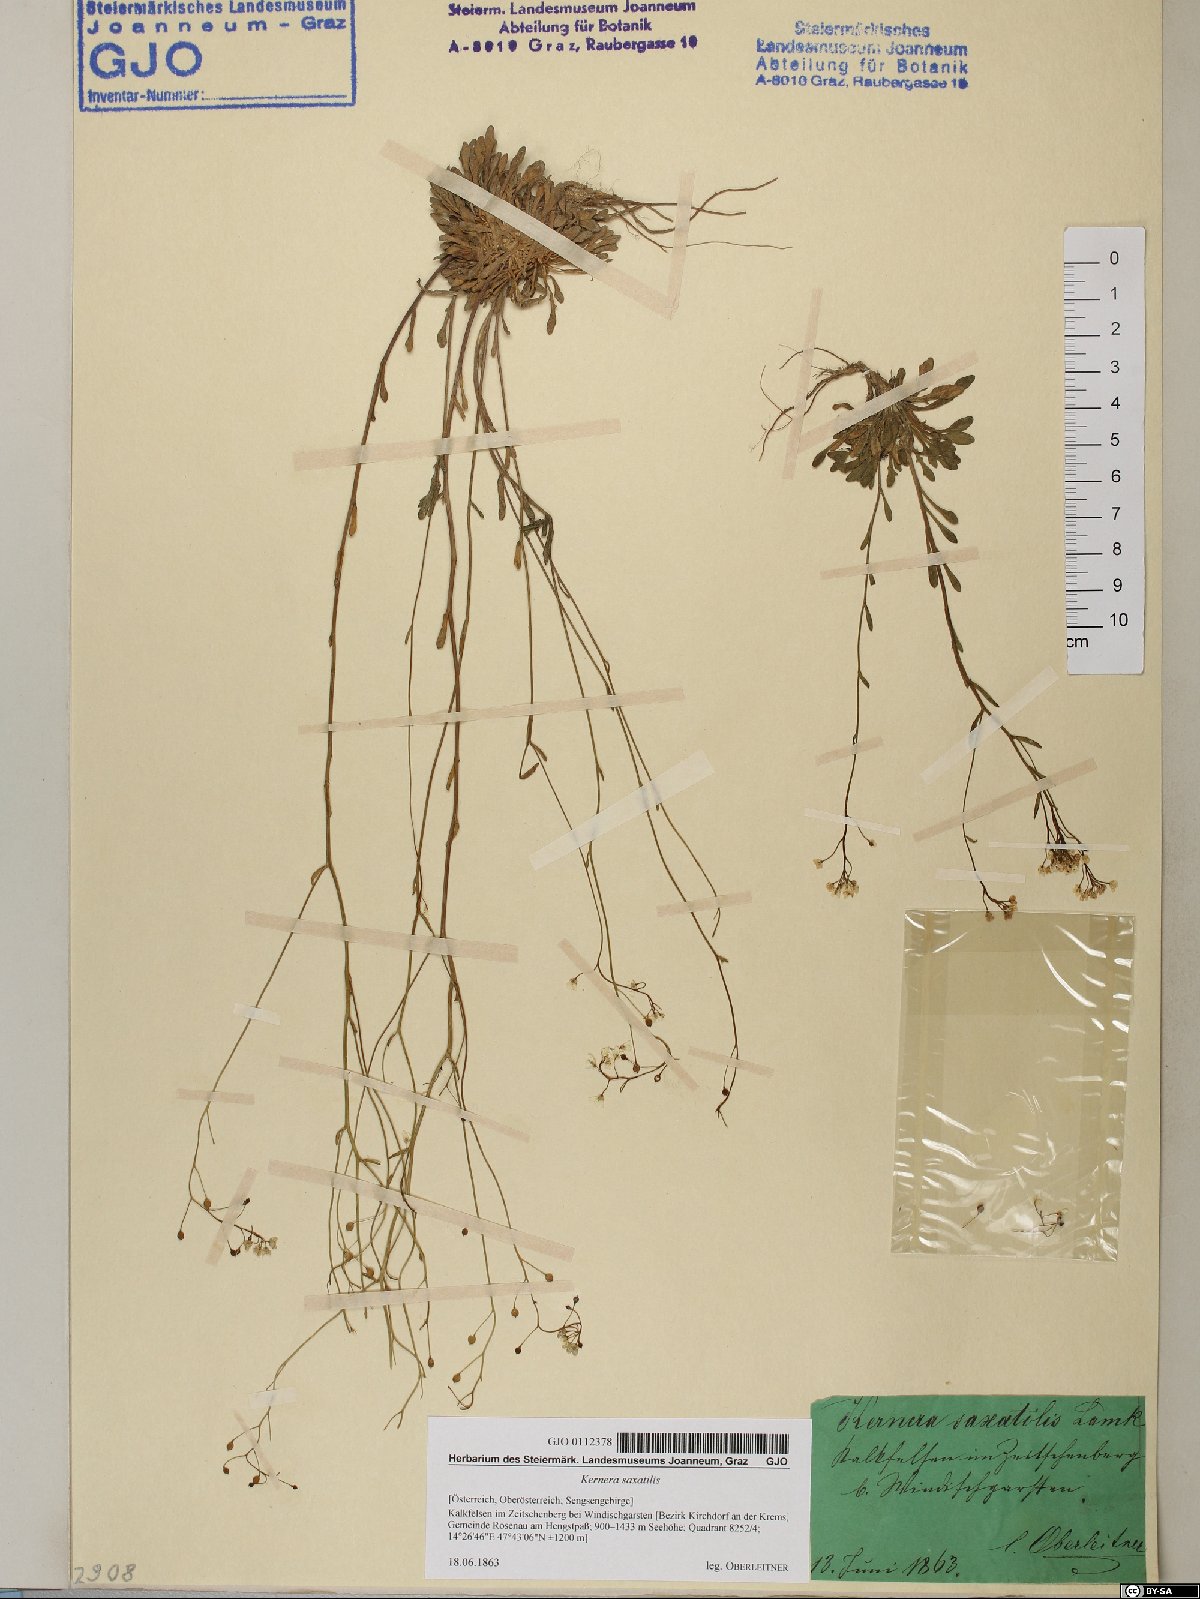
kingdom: Plantae
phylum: Tracheophyta
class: Magnoliopsida
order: Brassicales
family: Brassicaceae
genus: Kernera
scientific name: Kernera saxatilis
